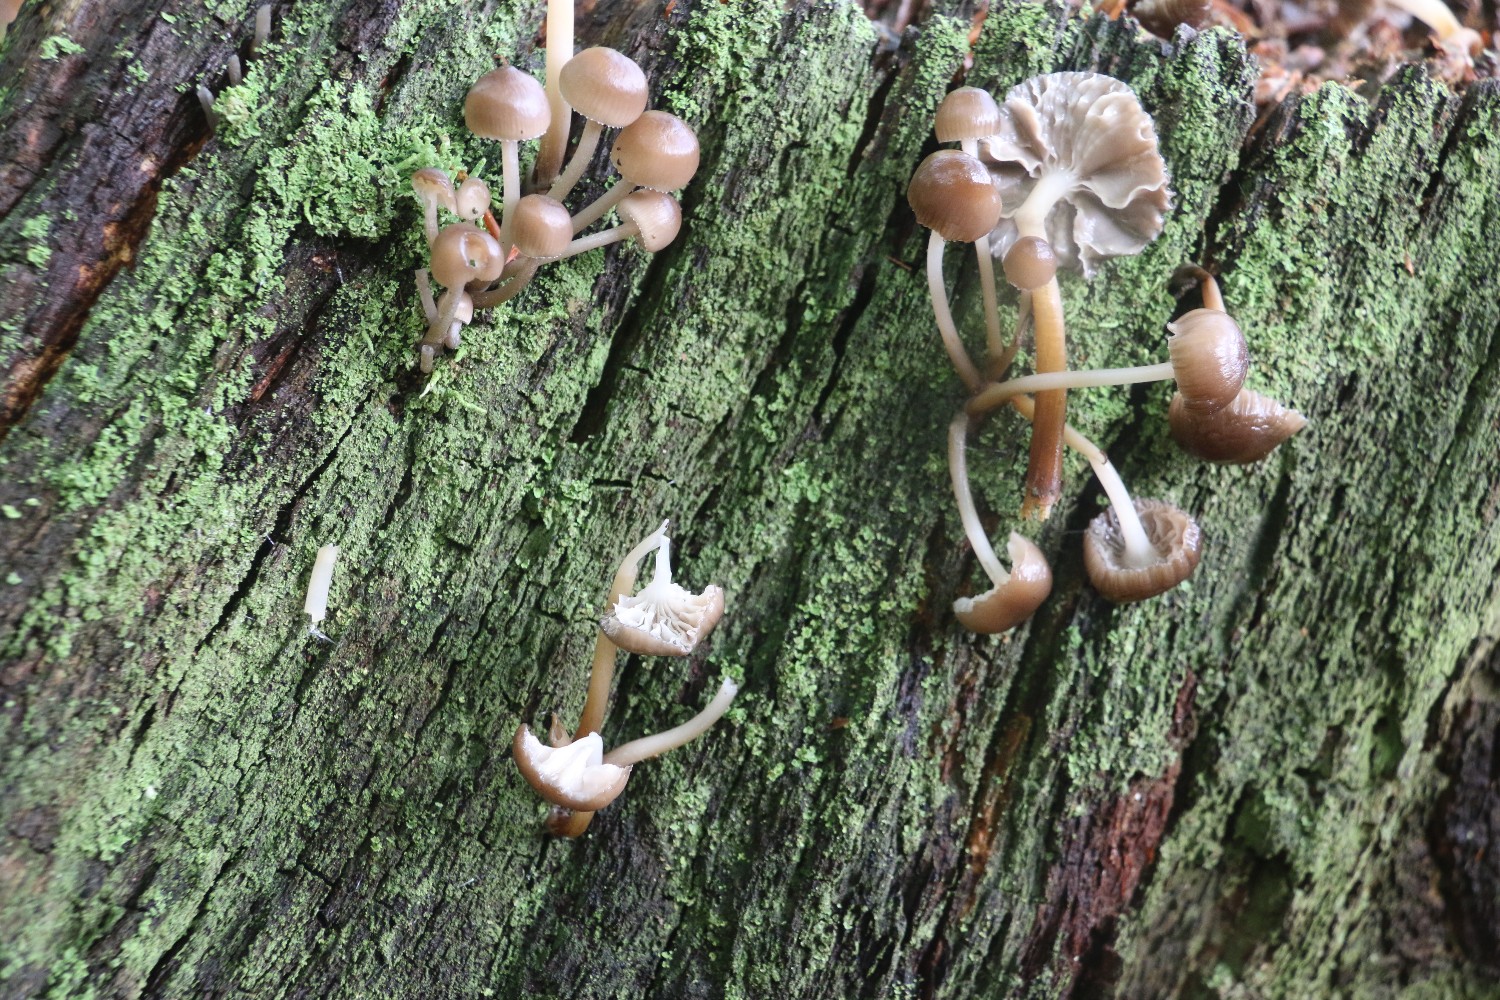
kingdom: Fungi
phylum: Basidiomycota
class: Agaricomycetes
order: Agaricales
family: Mycenaceae
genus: Mycena
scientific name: Mycena inclinata
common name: nikkende huesvamp
